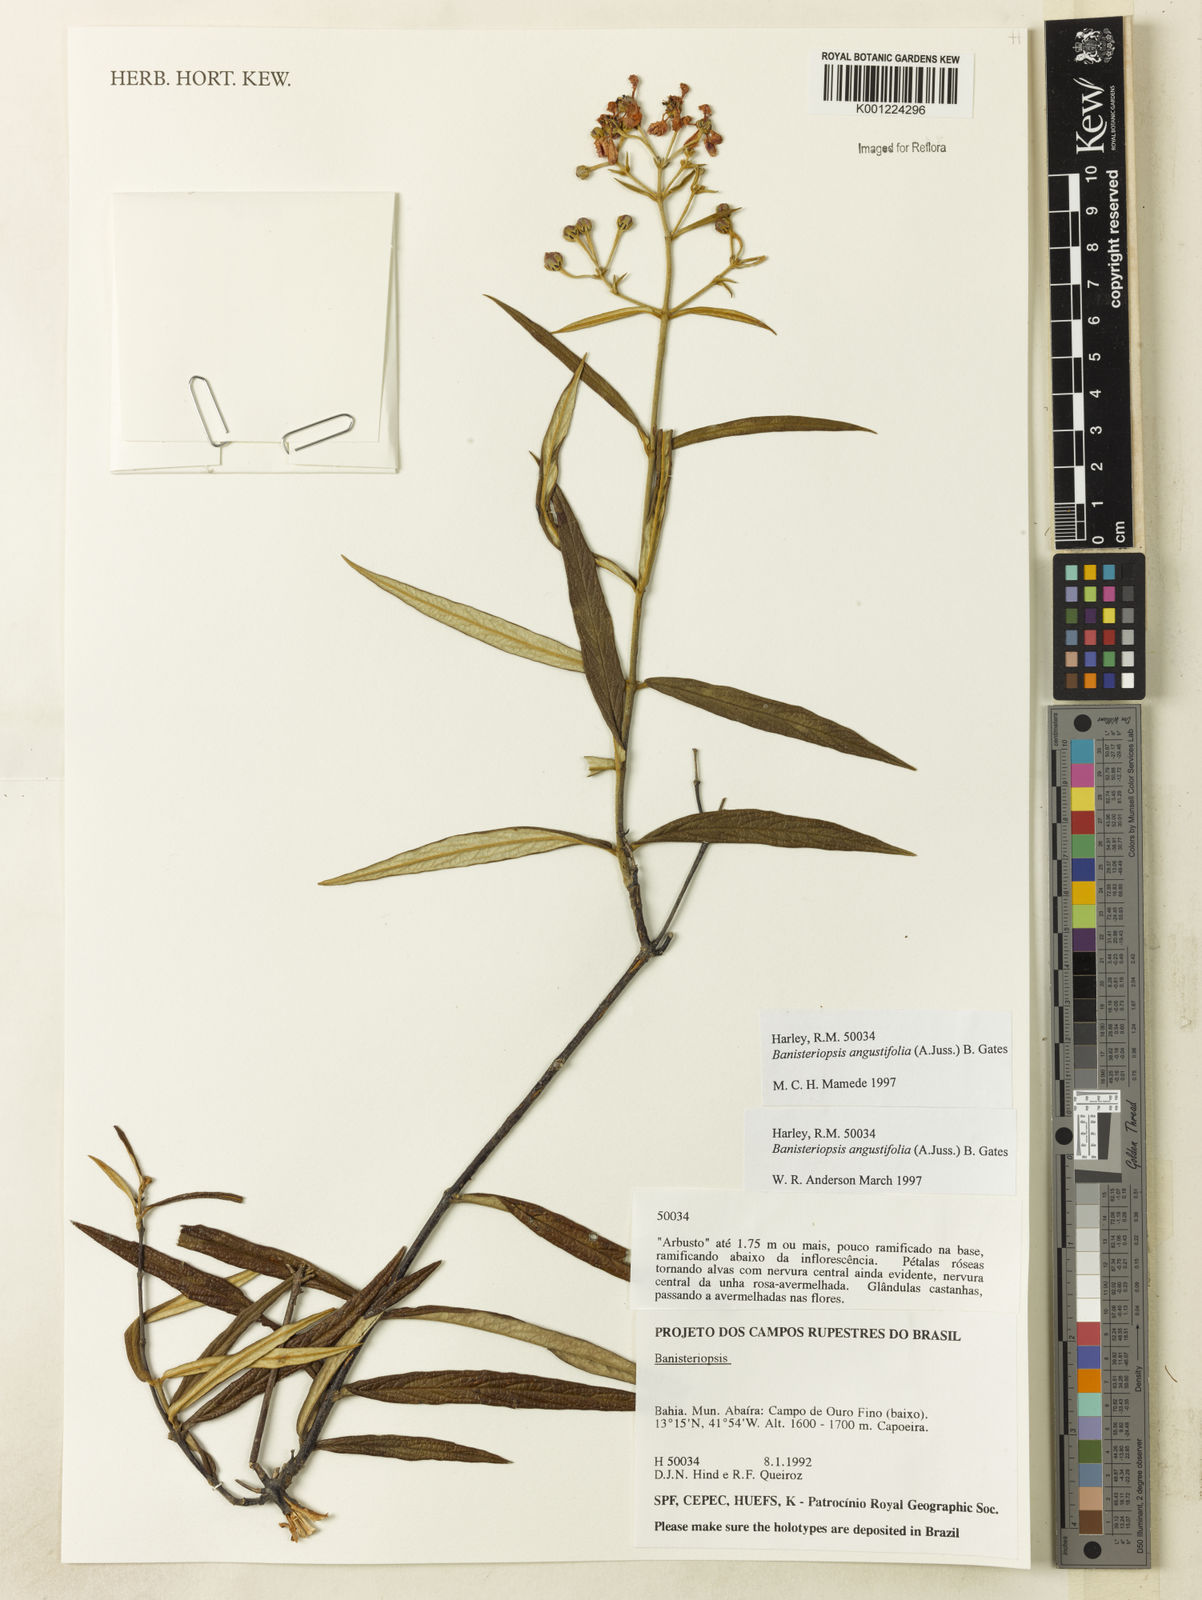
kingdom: Plantae
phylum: Tracheophyta
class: Magnoliopsida
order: Malpighiales
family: Malpighiaceae
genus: Banisteriopsis
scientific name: Banisteriopsis angustifolia
